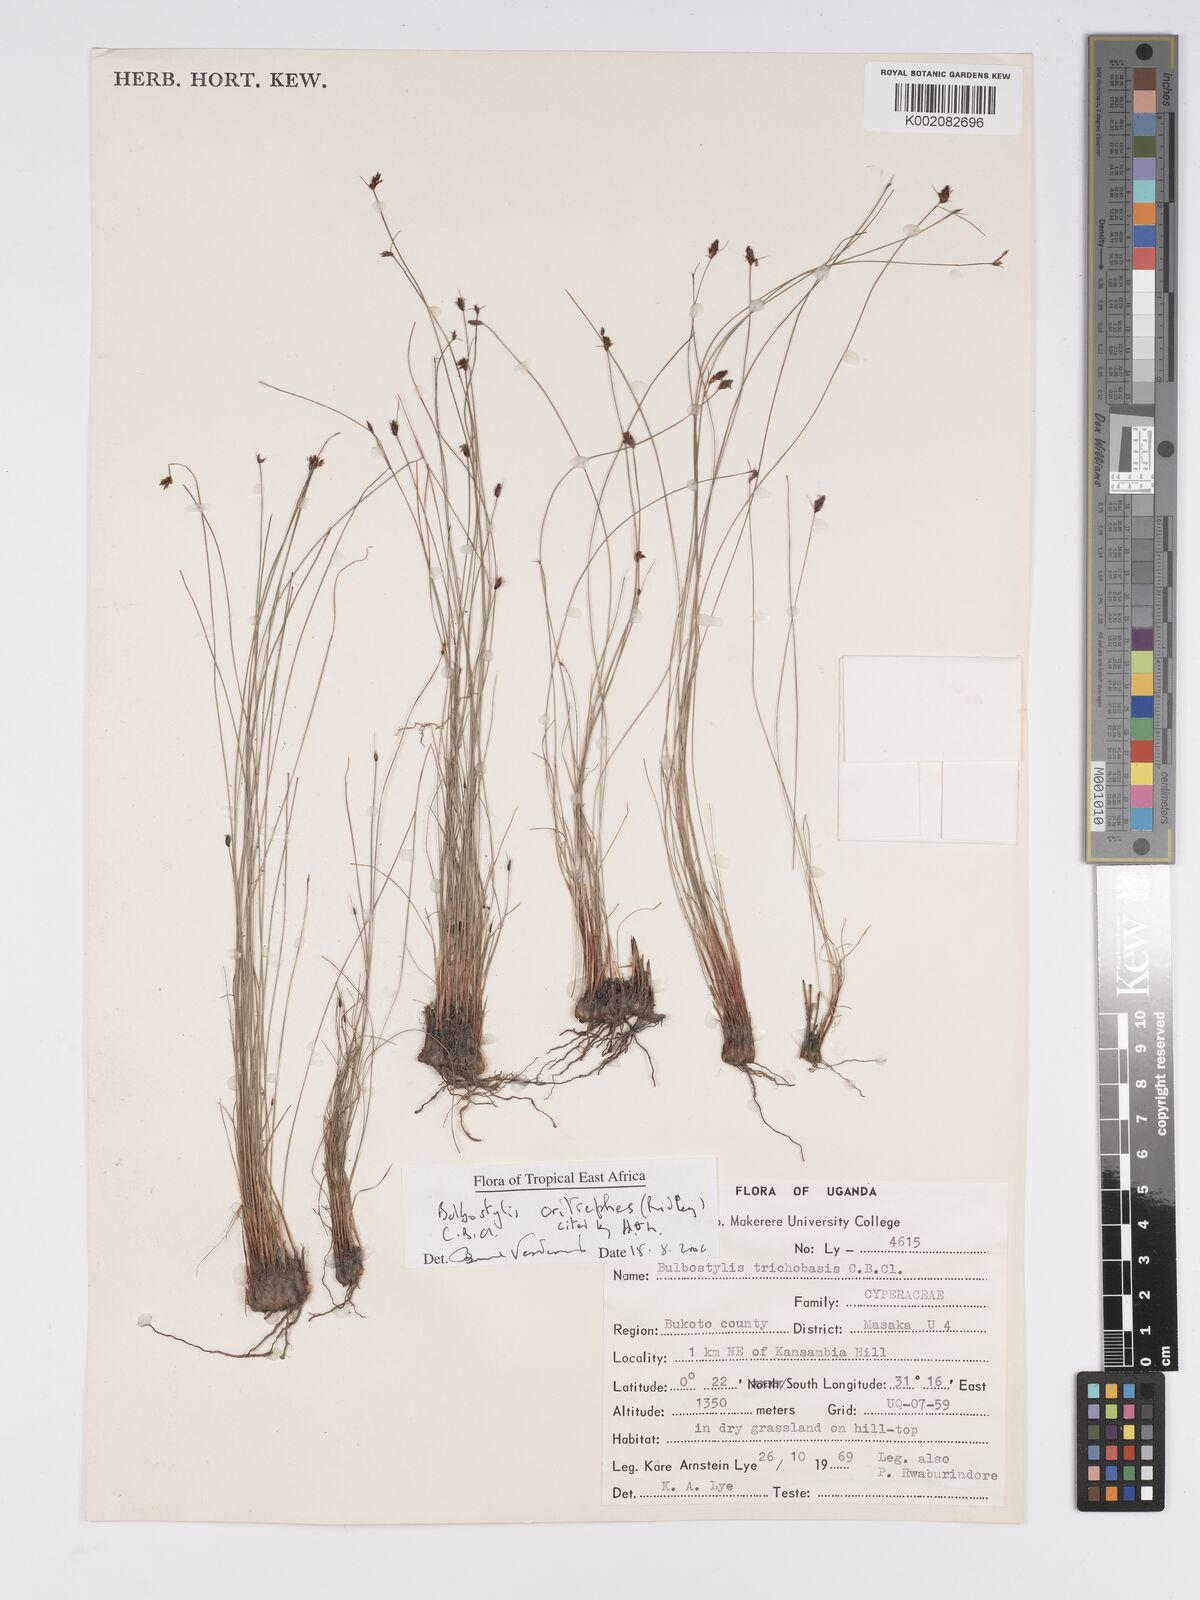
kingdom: Plantae
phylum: Tracheophyta
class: Liliopsida
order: Poales
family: Cyperaceae
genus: Bulbostylis
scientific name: Bulbostylis oritrephes
